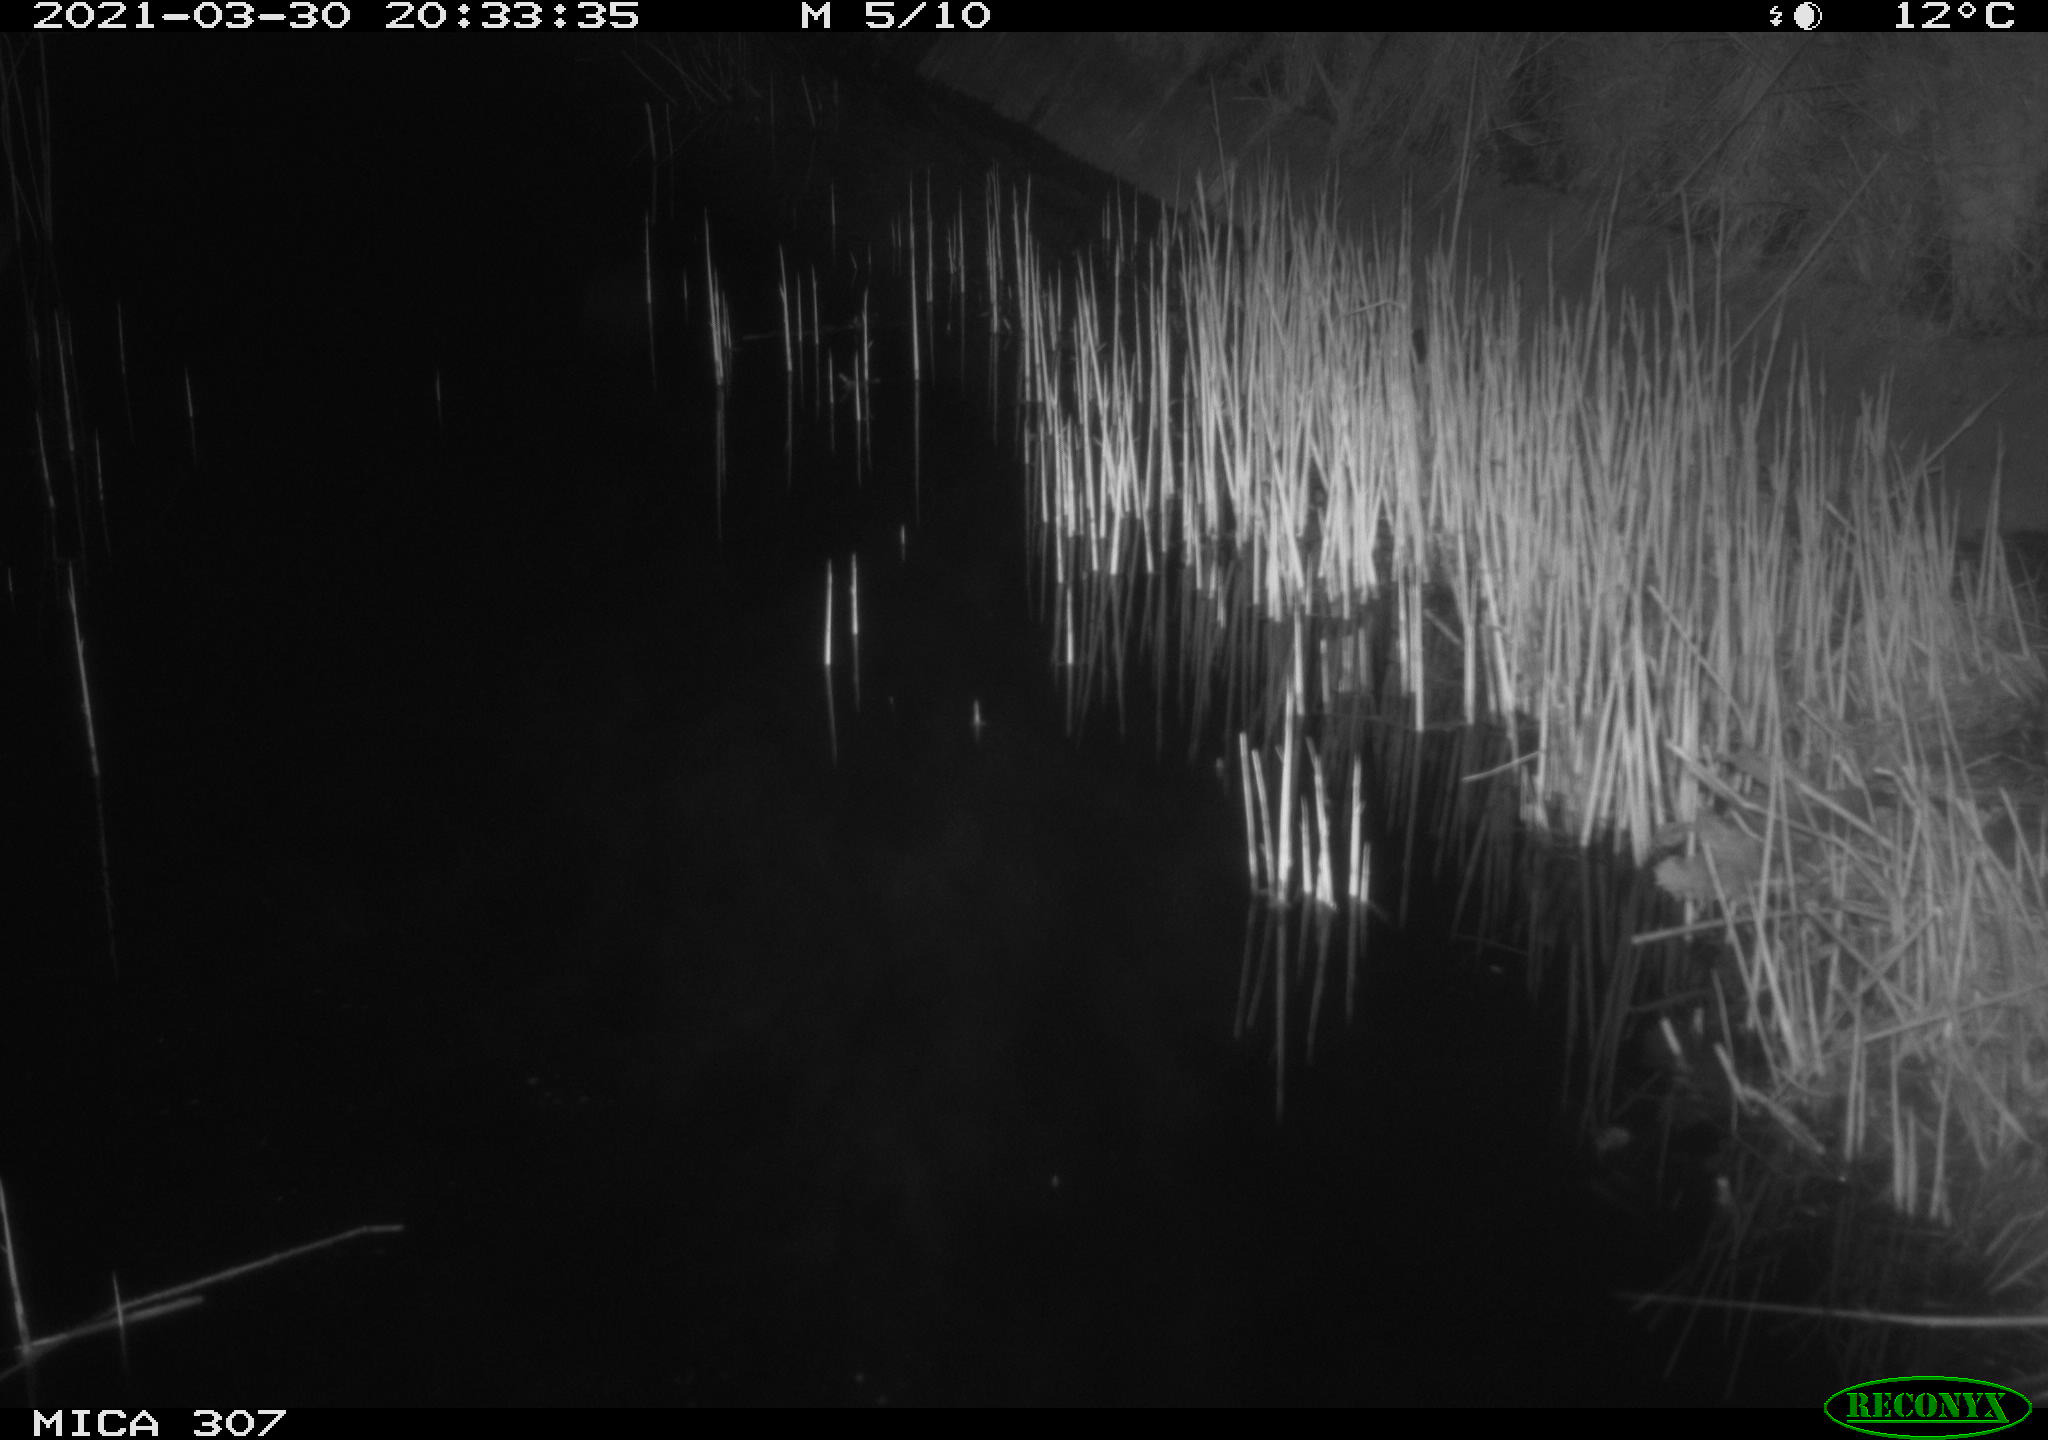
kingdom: Animalia
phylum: Chordata
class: Mammalia
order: Rodentia
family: Muridae
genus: Rattus
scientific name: Rattus norvegicus
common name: Brown rat
